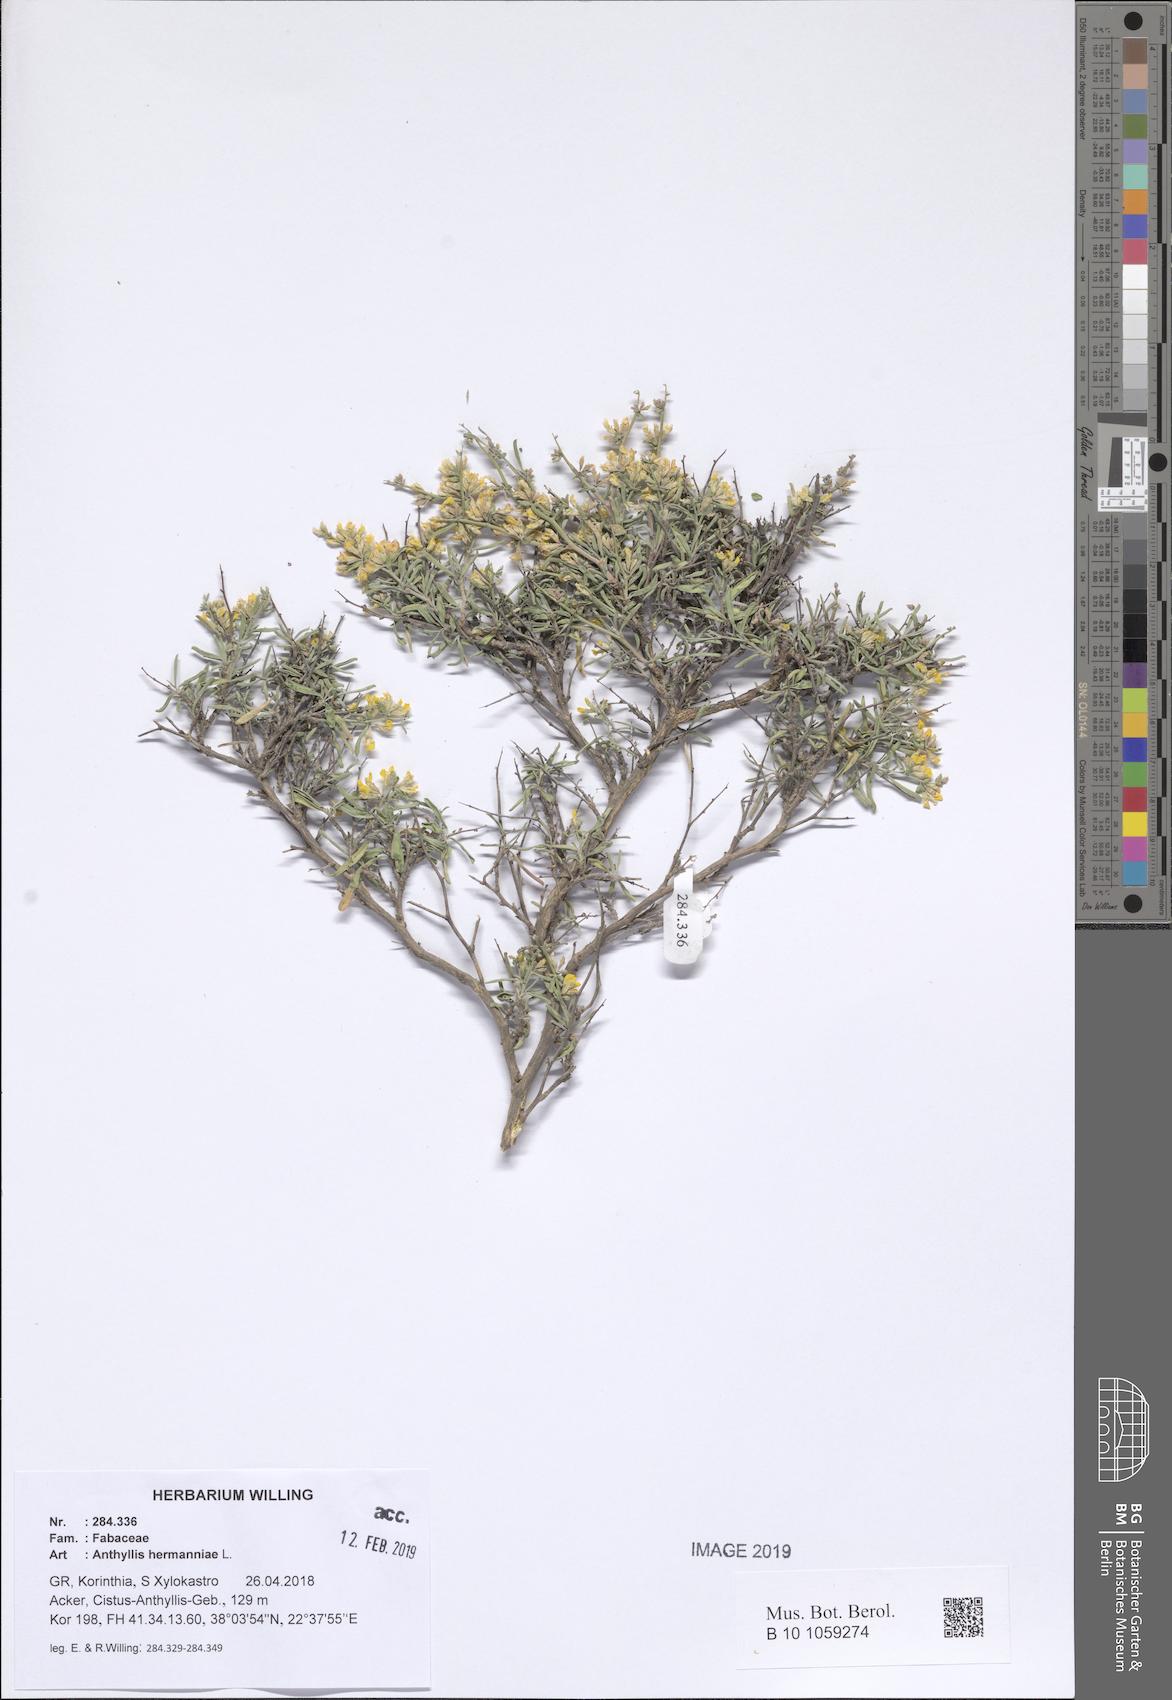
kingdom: Plantae
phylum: Tracheophyta
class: Magnoliopsida
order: Fabales
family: Fabaceae
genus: Anthyllis
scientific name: Anthyllis hermanniae
